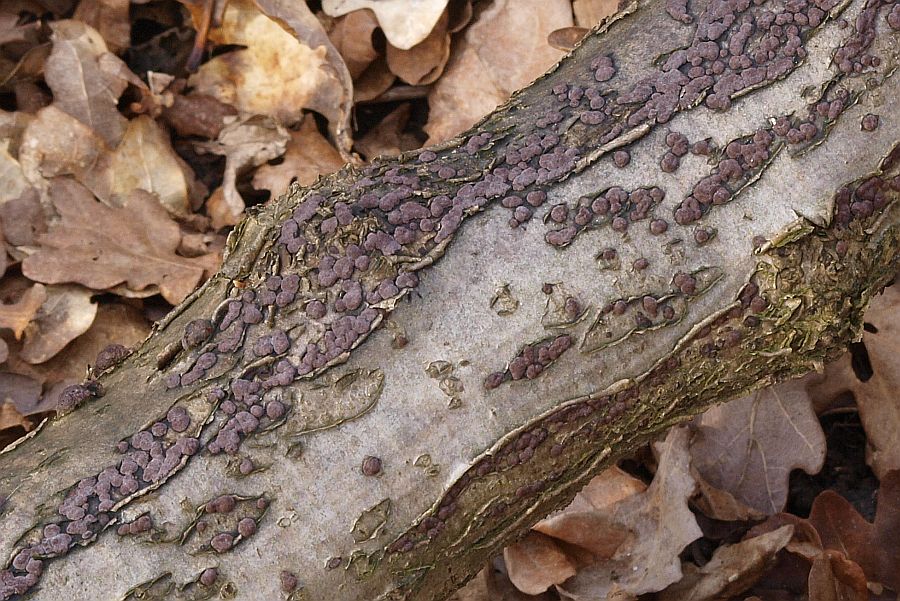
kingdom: Fungi
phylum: Ascomycota
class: Sordariomycetes
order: Xylariales
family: Hypoxylaceae
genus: Hypoxylon
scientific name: Hypoxylon fuscum
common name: kegleformet kulbær
